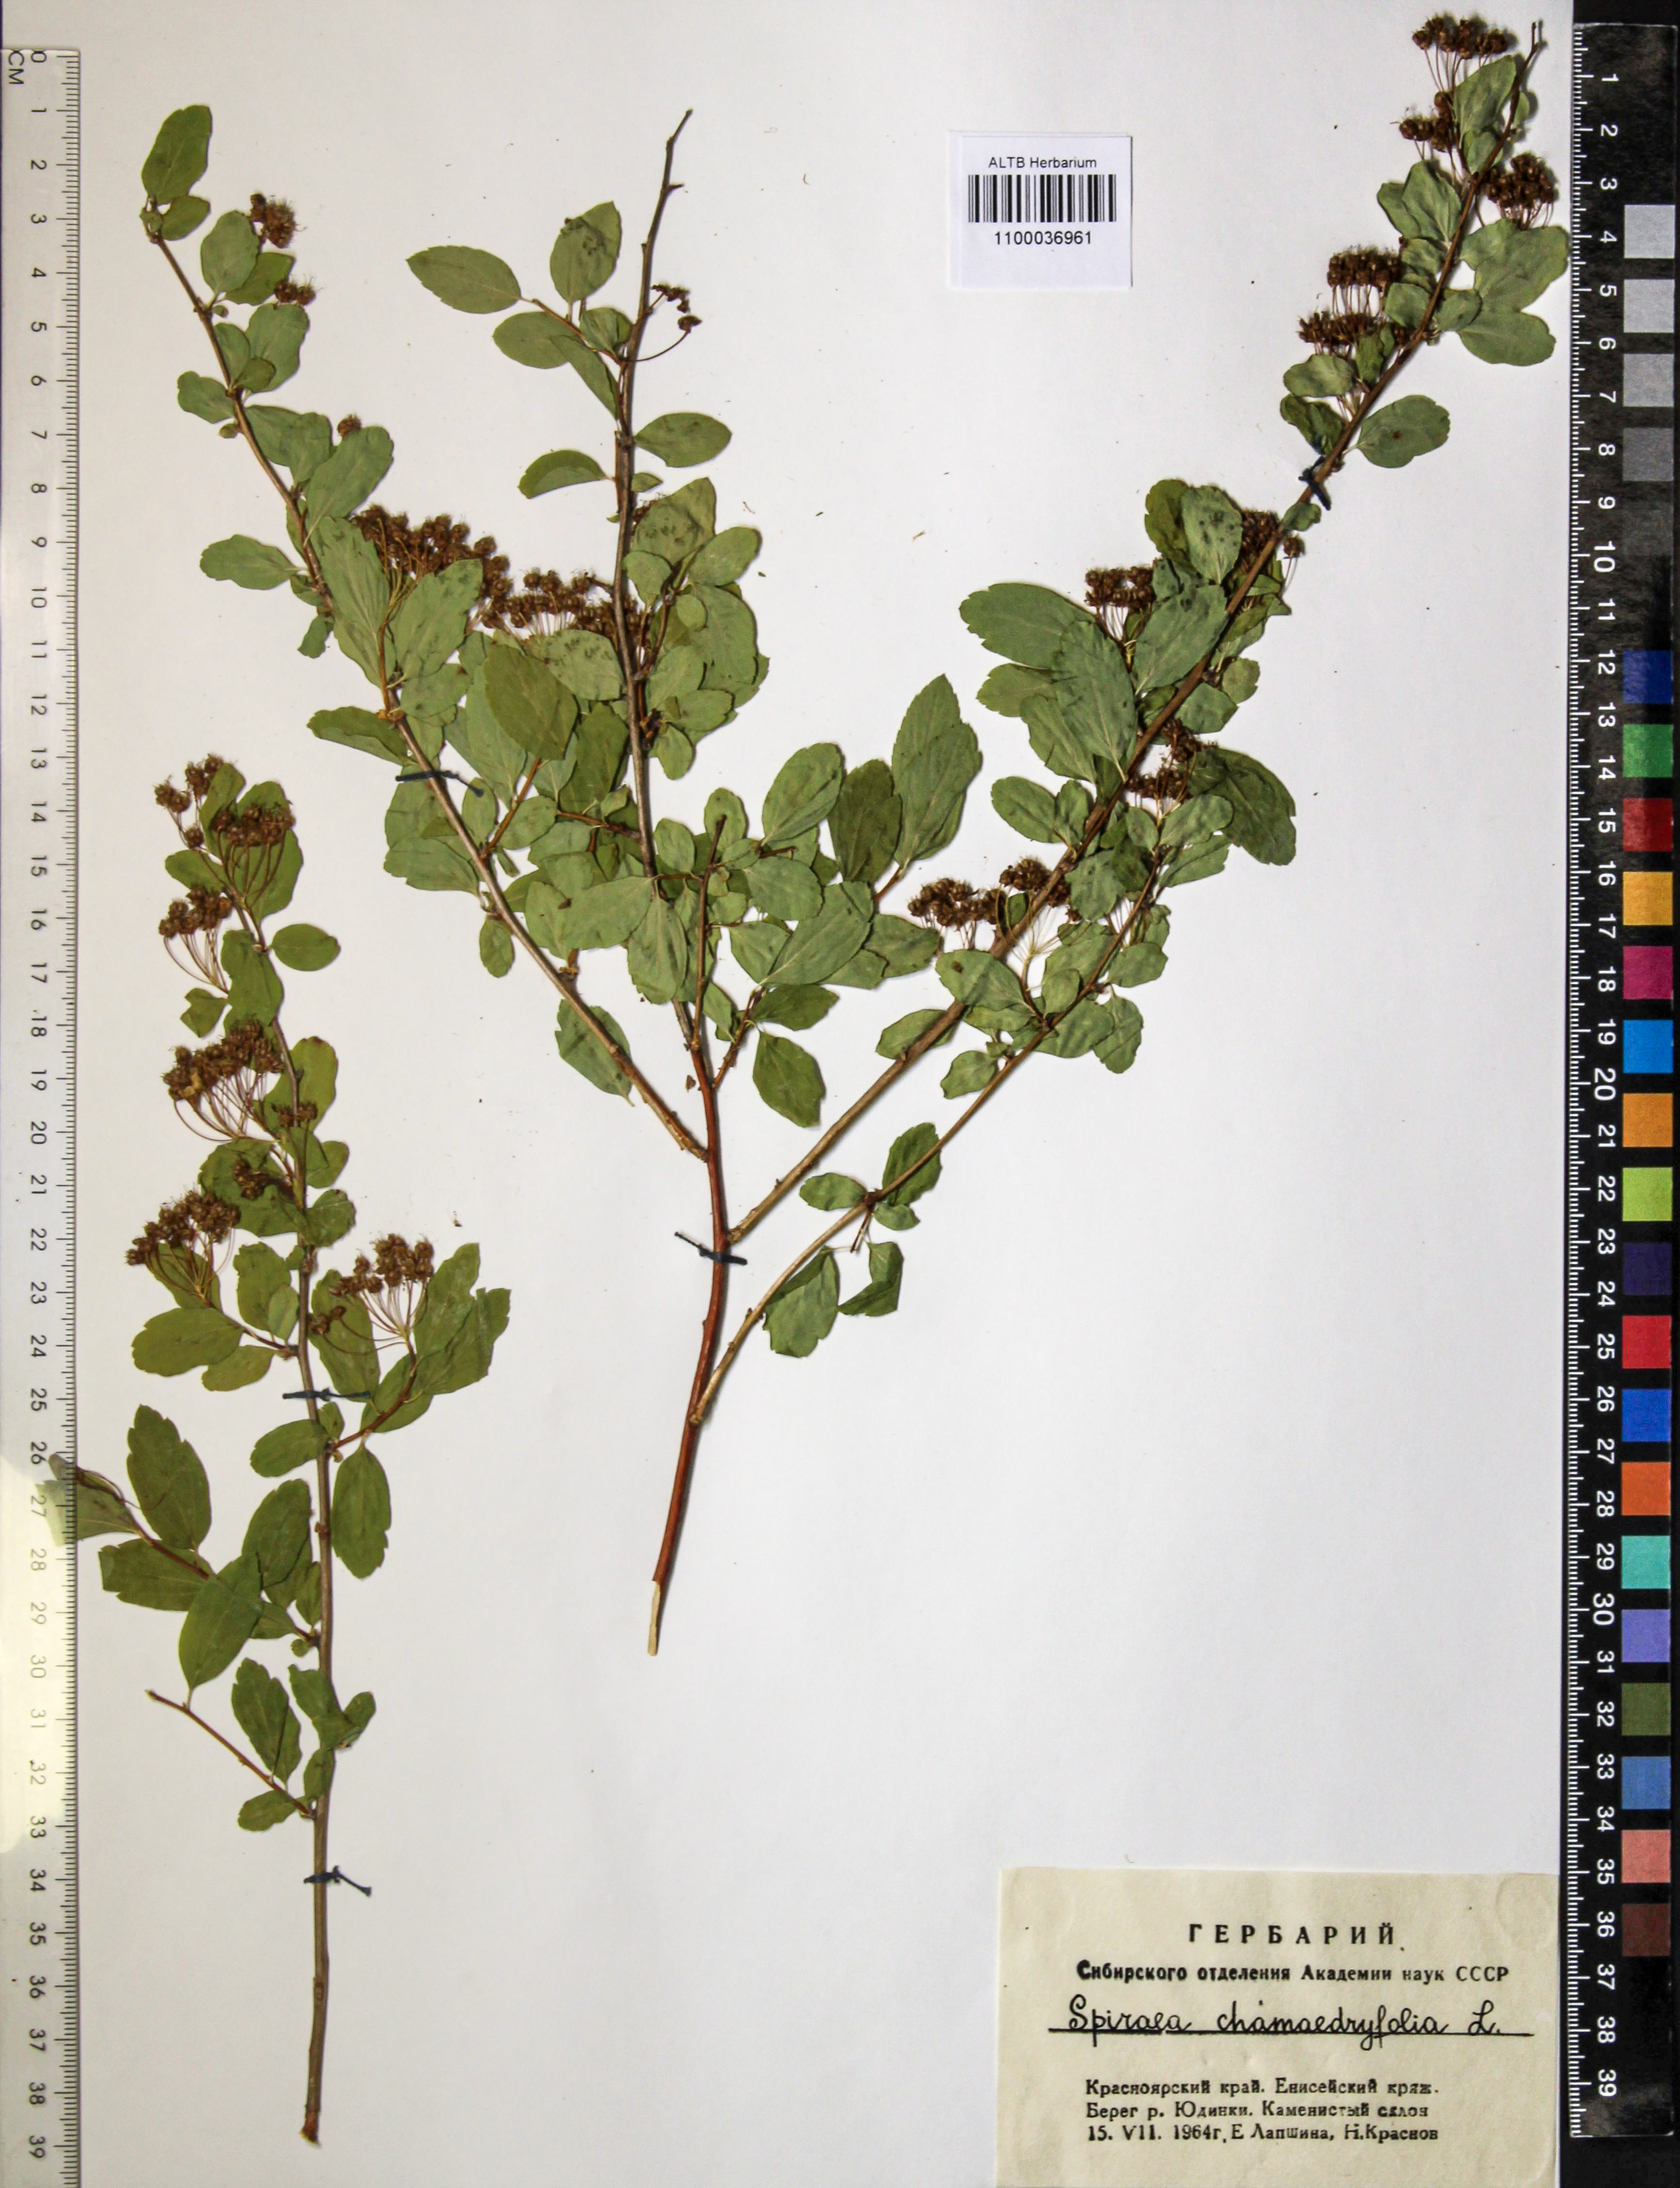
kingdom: Plantae
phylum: Tracheophyta
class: Magnoliopsida
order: Rosales
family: Rosaceae
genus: Spiraea
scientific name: Spiraea chamaedryfolia
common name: Elm-leaved spiraea
